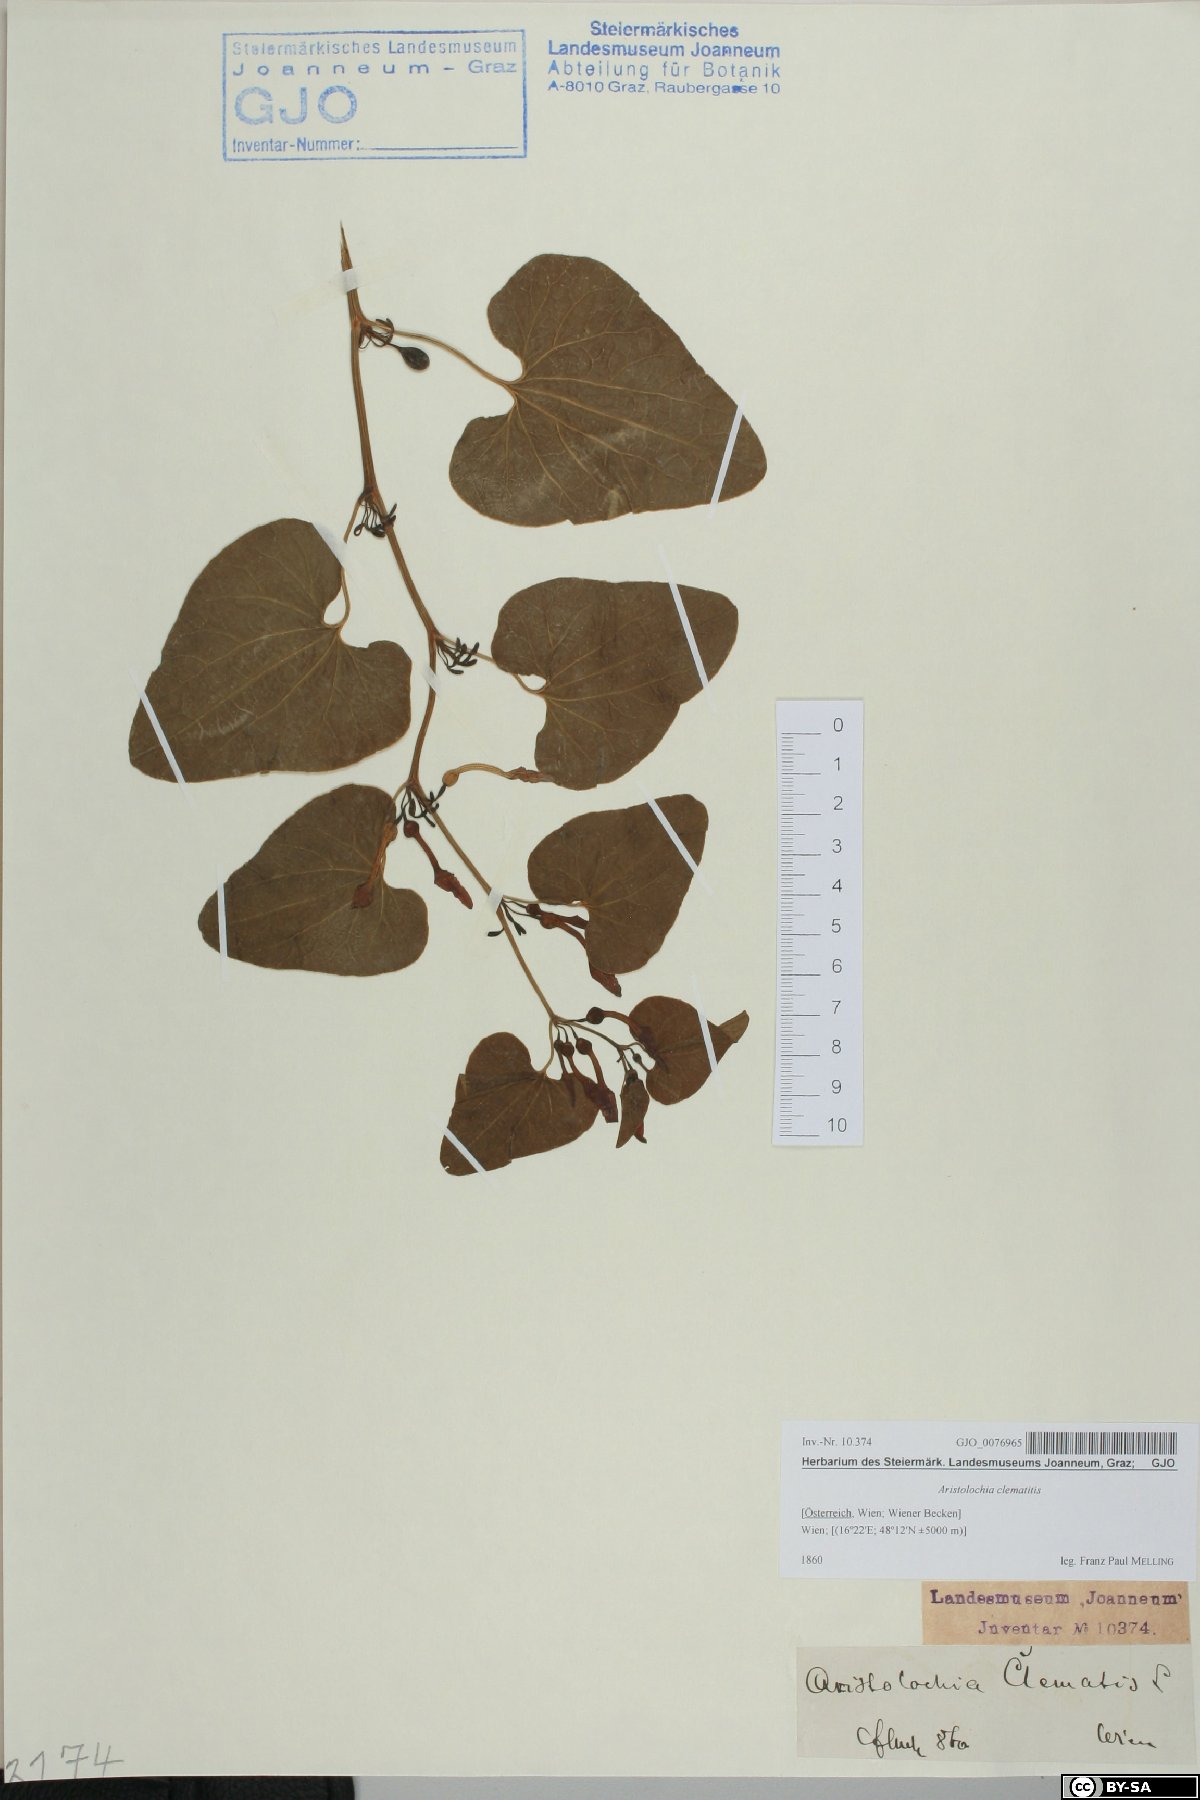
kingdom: Plantae
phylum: Tracheophyta
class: Magnoliopsida
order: Piperales
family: Aristolochiaceae
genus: Aristolochia
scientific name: Aristolochia clematitis
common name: Birthwort
